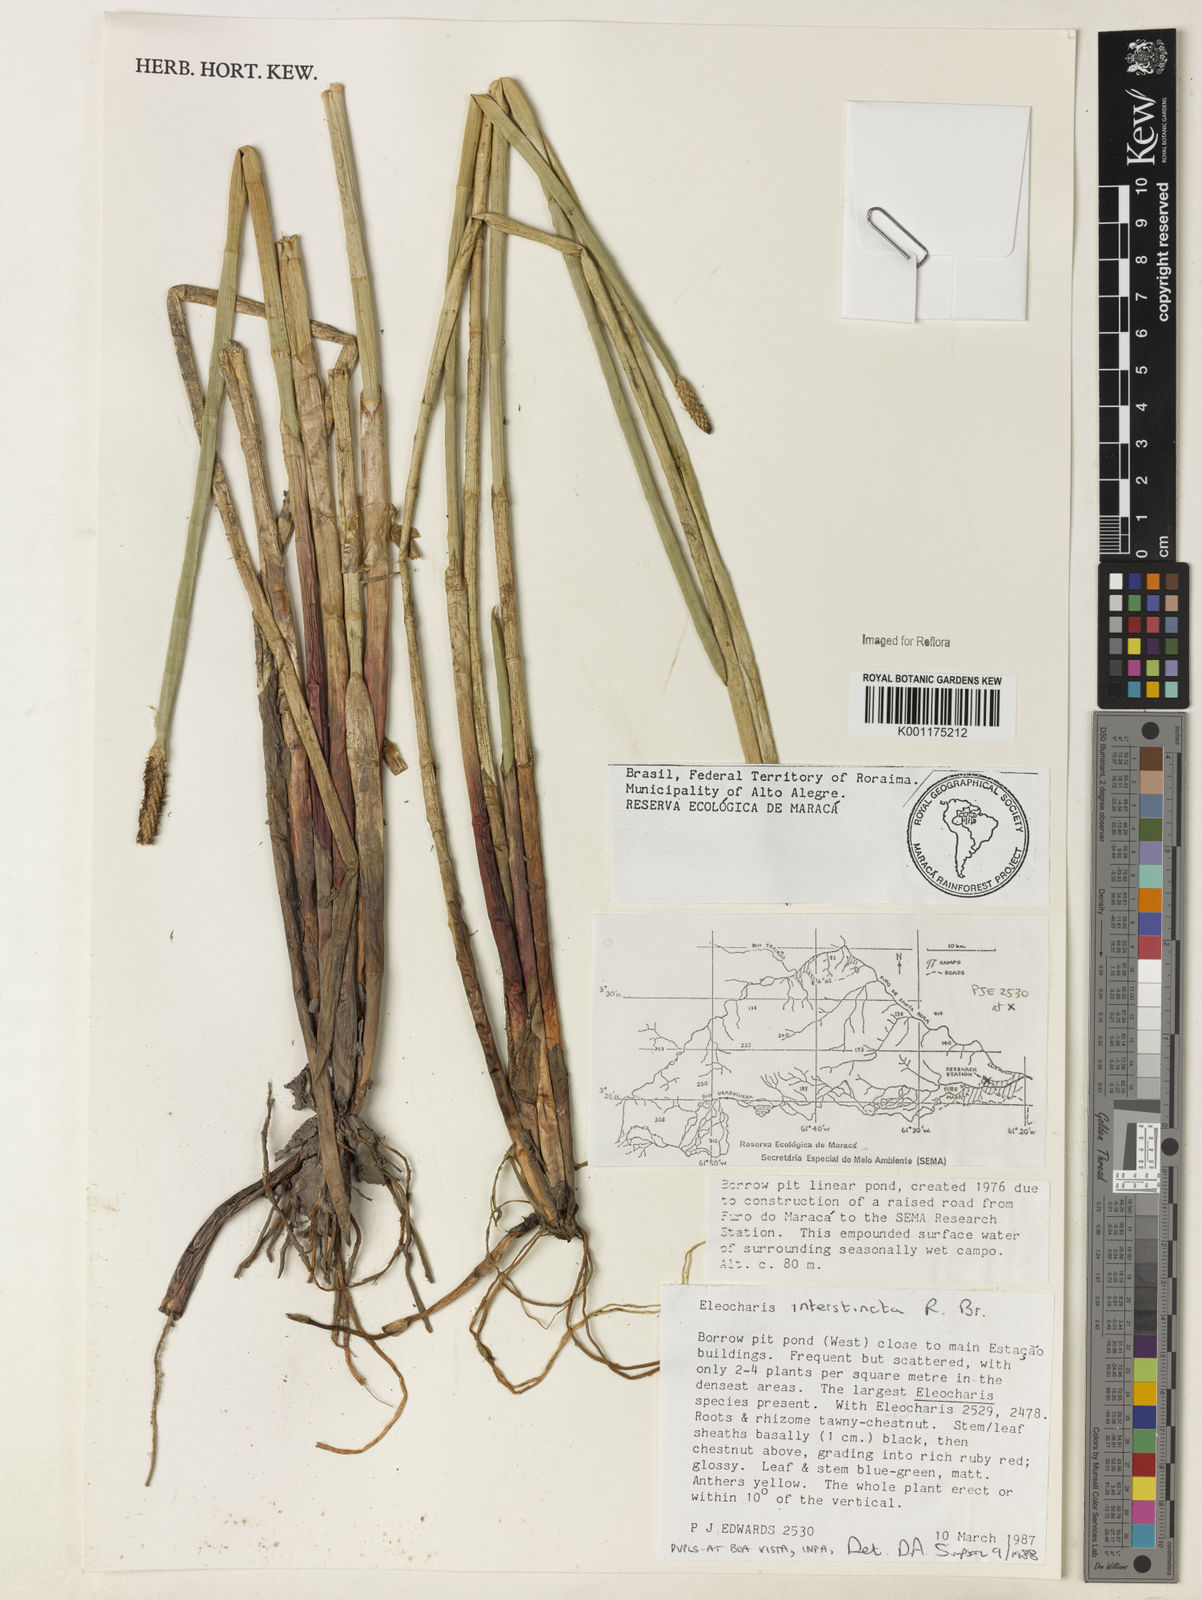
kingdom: Plantae
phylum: Tracheophyta
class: Liliopsida
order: Poales
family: Cyperaceae
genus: Eleocharis
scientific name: Eleocharis interstincta
